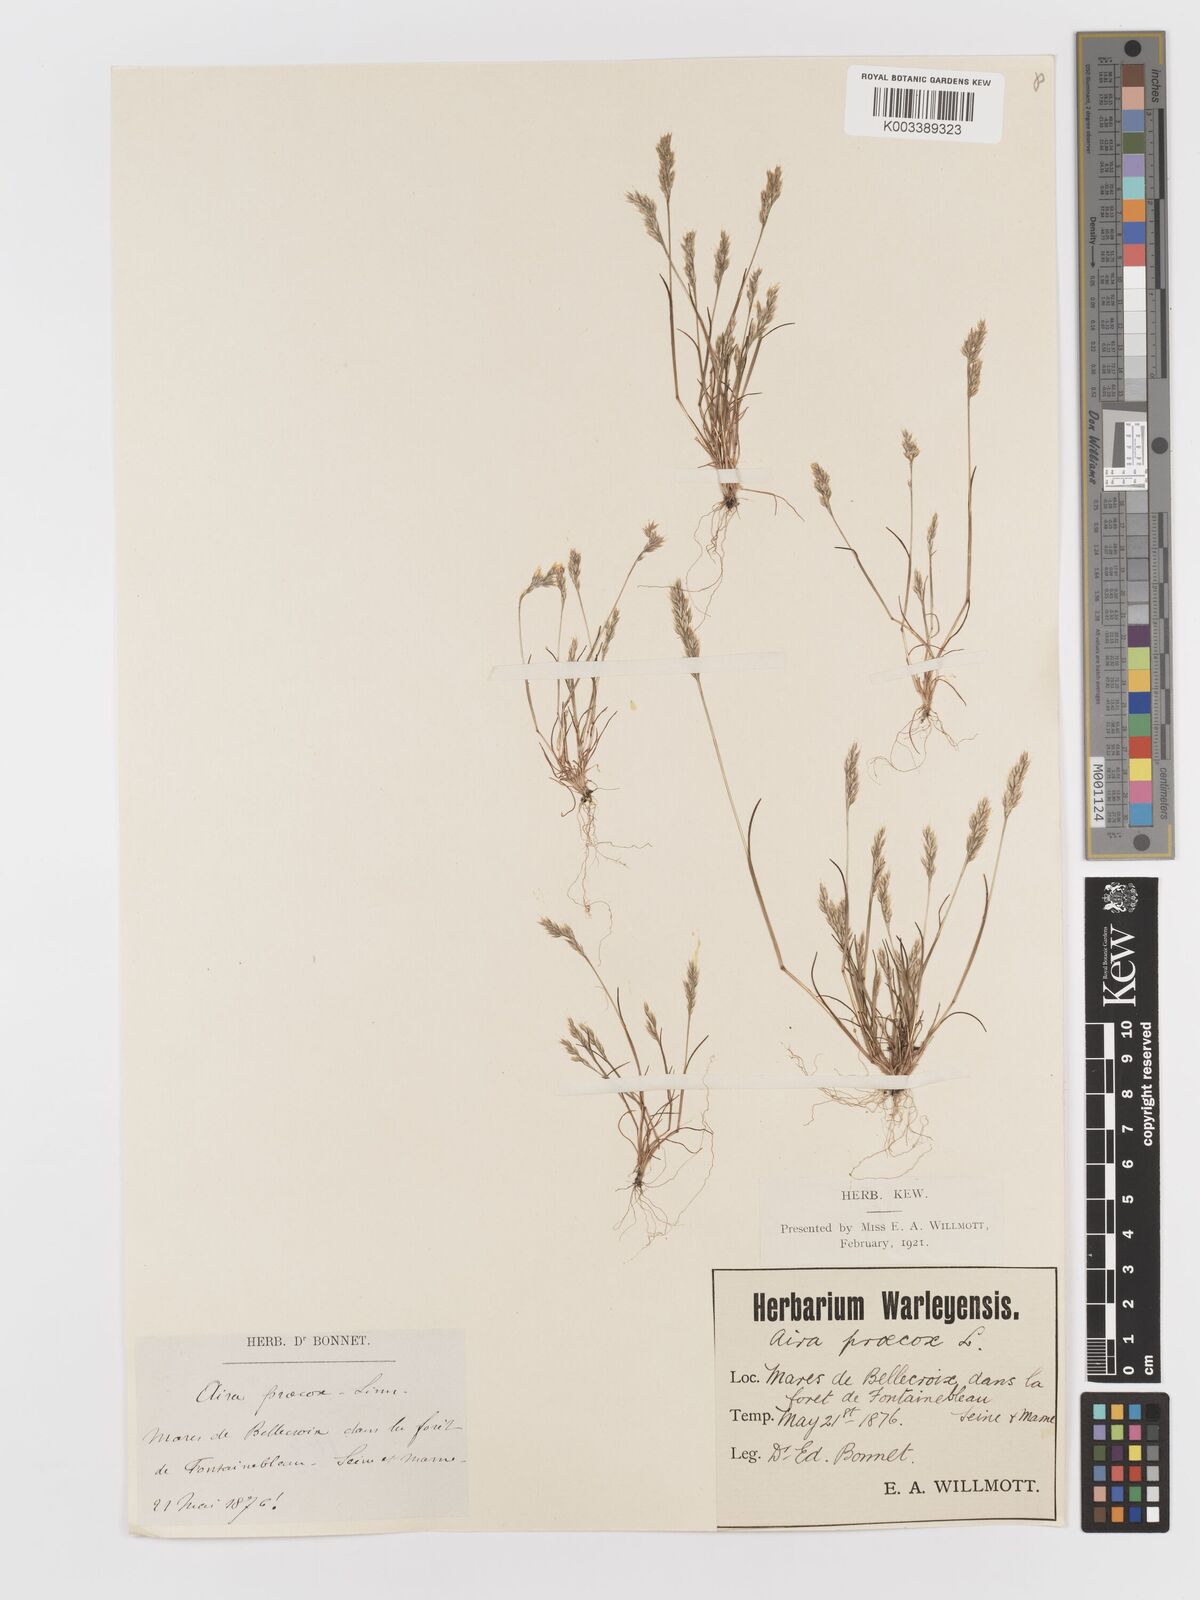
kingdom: Plantae
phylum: Tracheophyta
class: Liliopsida
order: Poales
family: Poaceae
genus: Aira
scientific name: Aira praecox
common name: Early hair-grass
